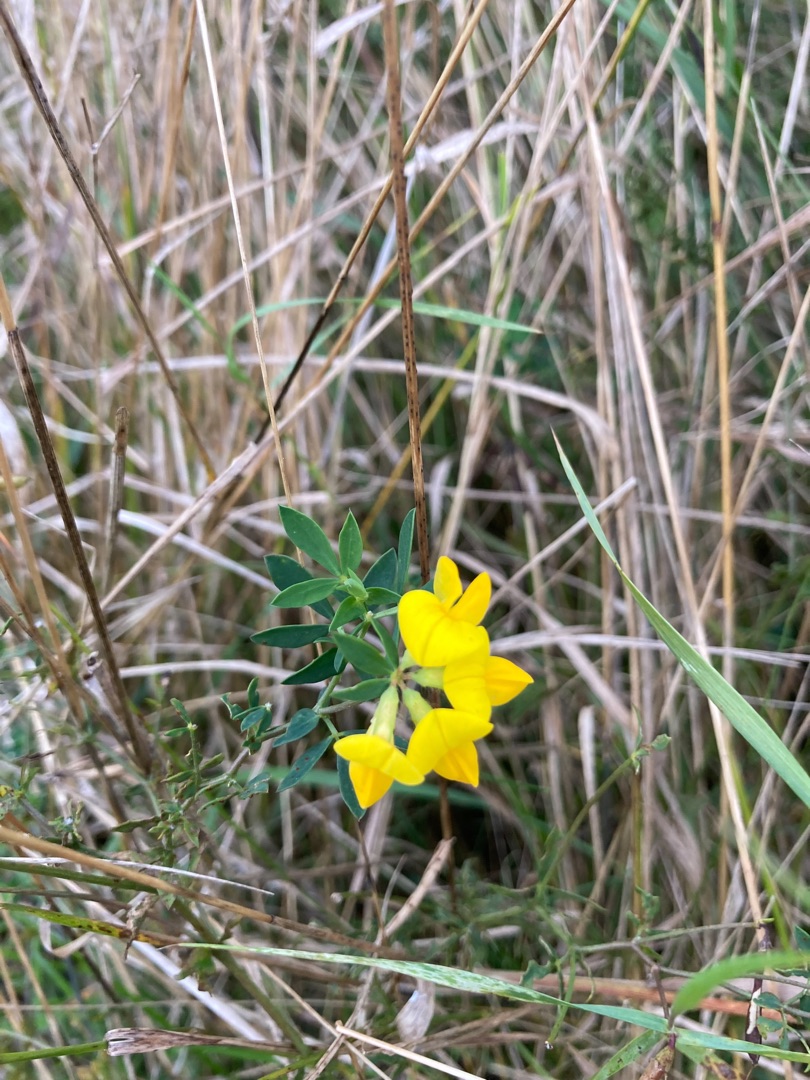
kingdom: Plantae
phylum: Tracheophyta
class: Magnoliopsida
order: Fabales
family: Fabaceae
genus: Lotus
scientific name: Lotus corniculatus
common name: Almindelig kællingetand
